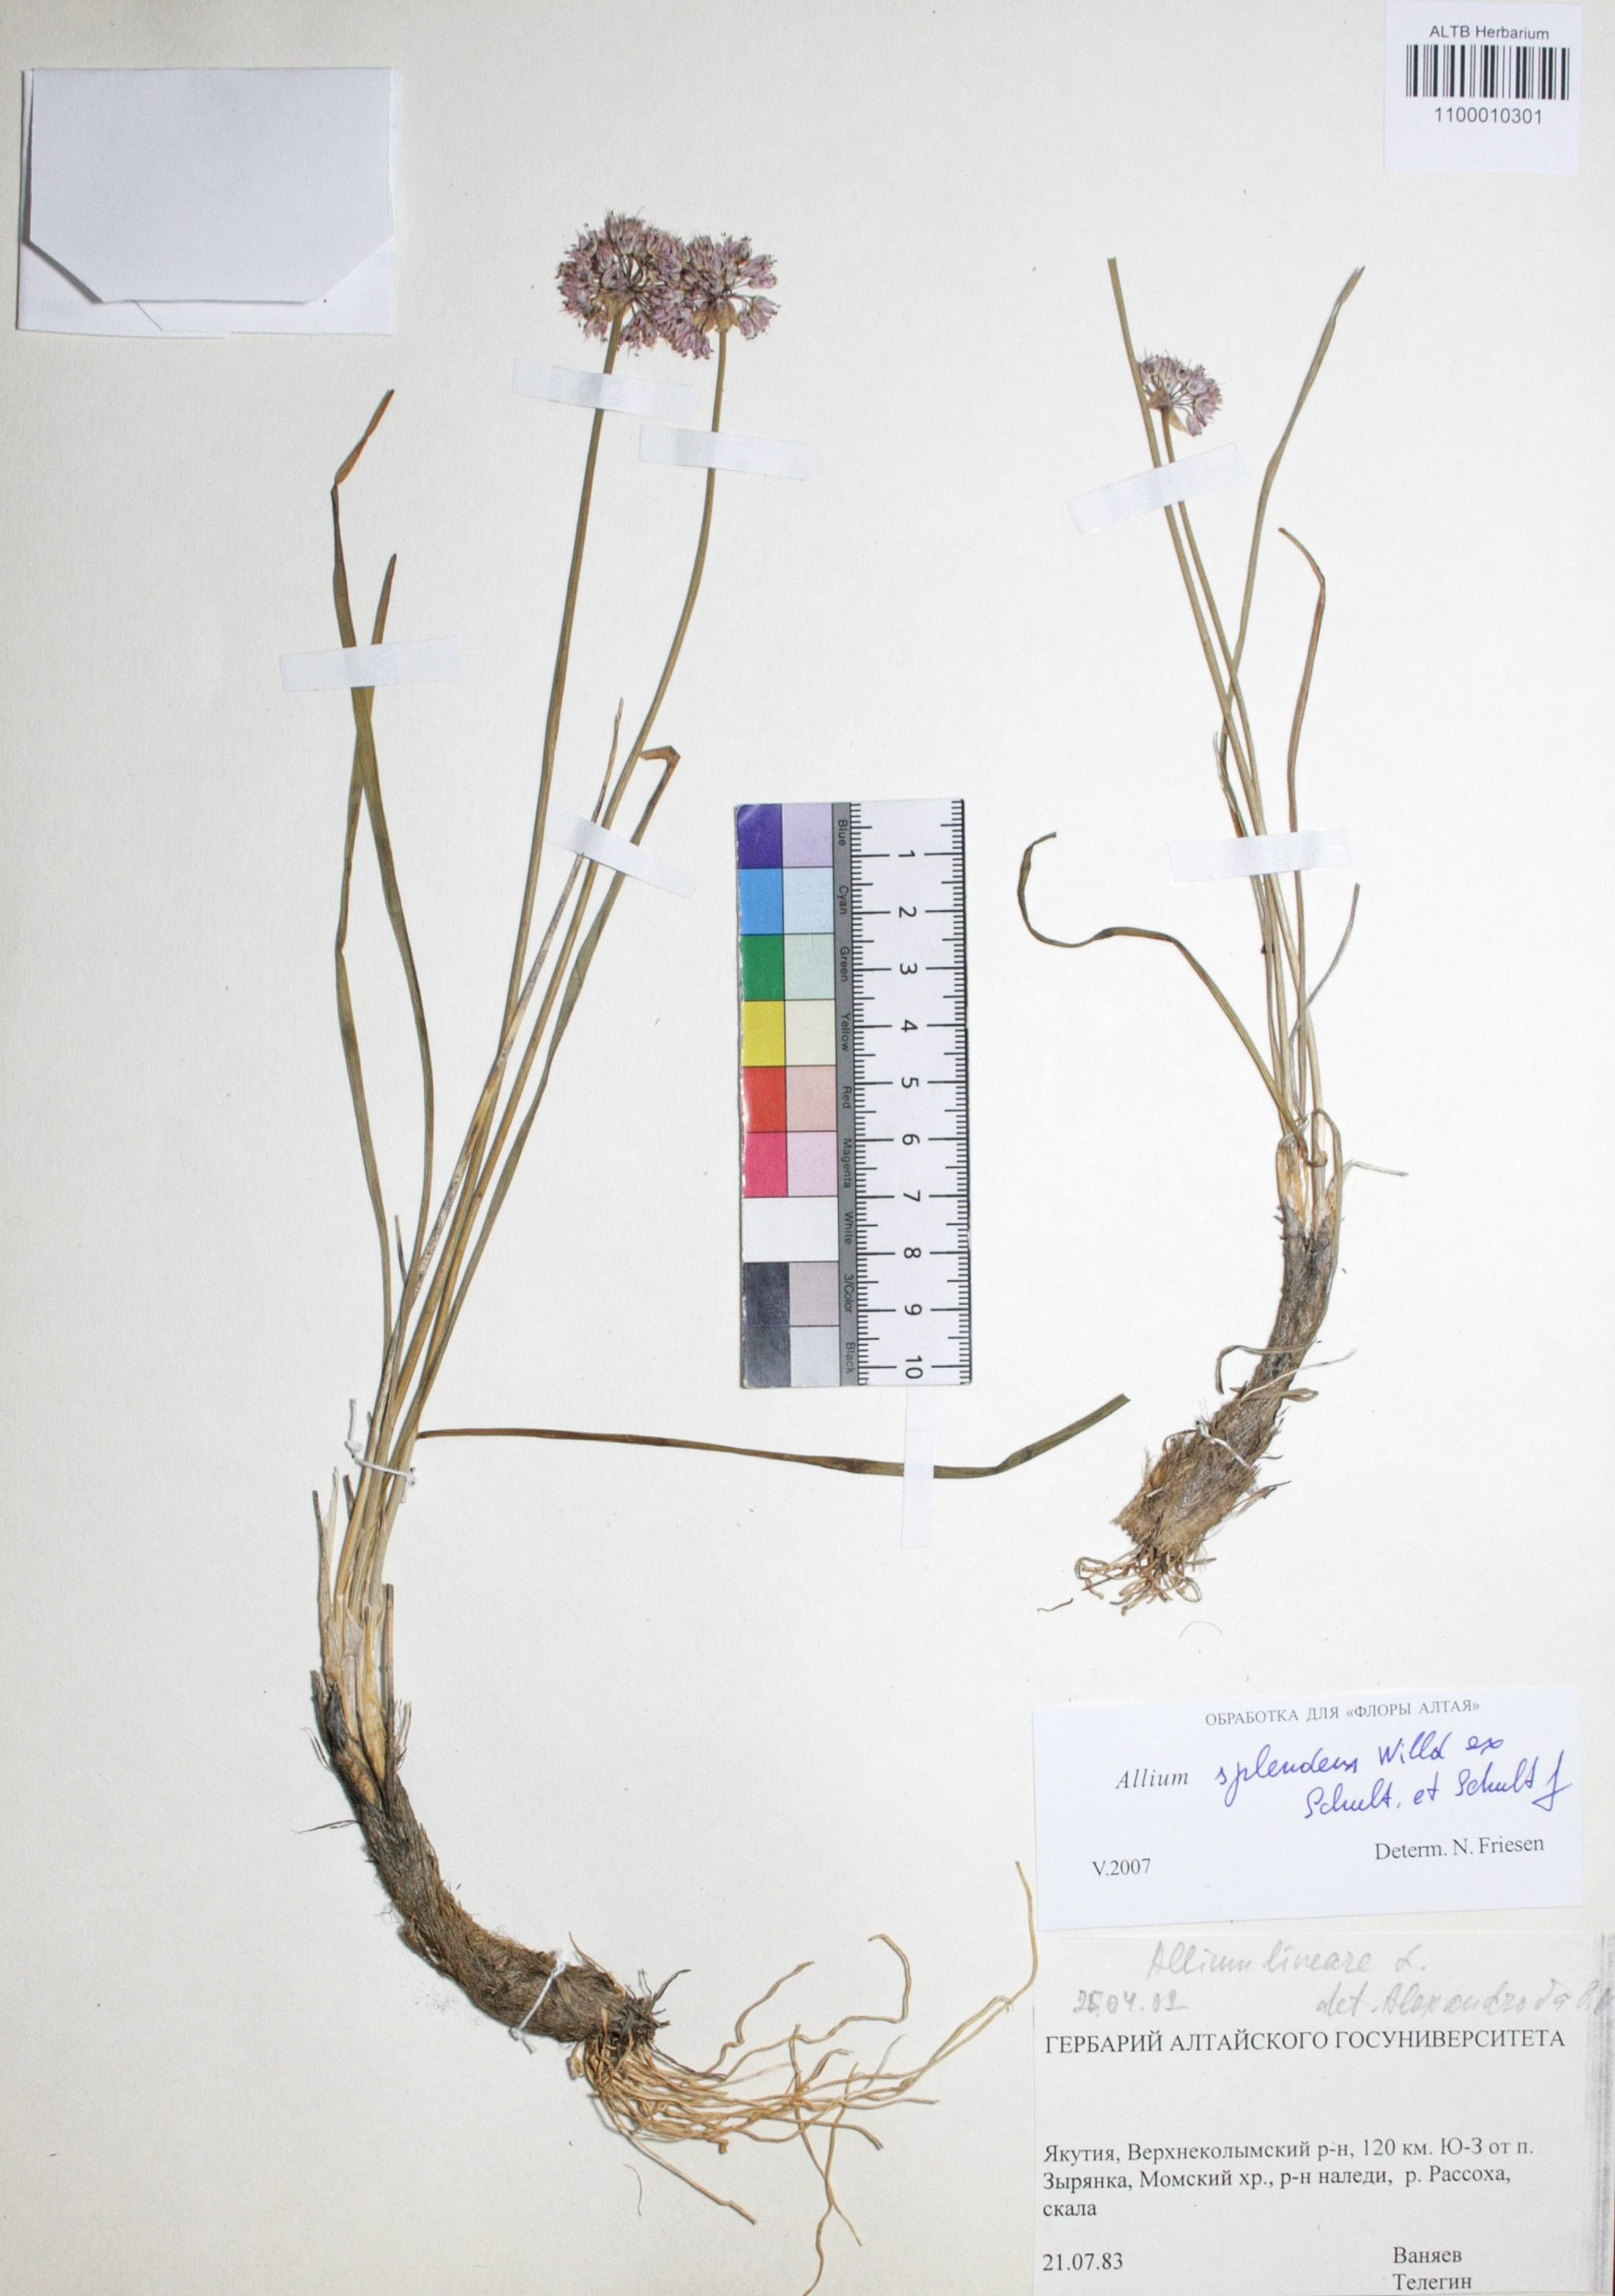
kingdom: Plantae
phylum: Tracheophyta
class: Liliopsida
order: Asparagales
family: Amaryllidaceae
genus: Allium
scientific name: Allium splendens
